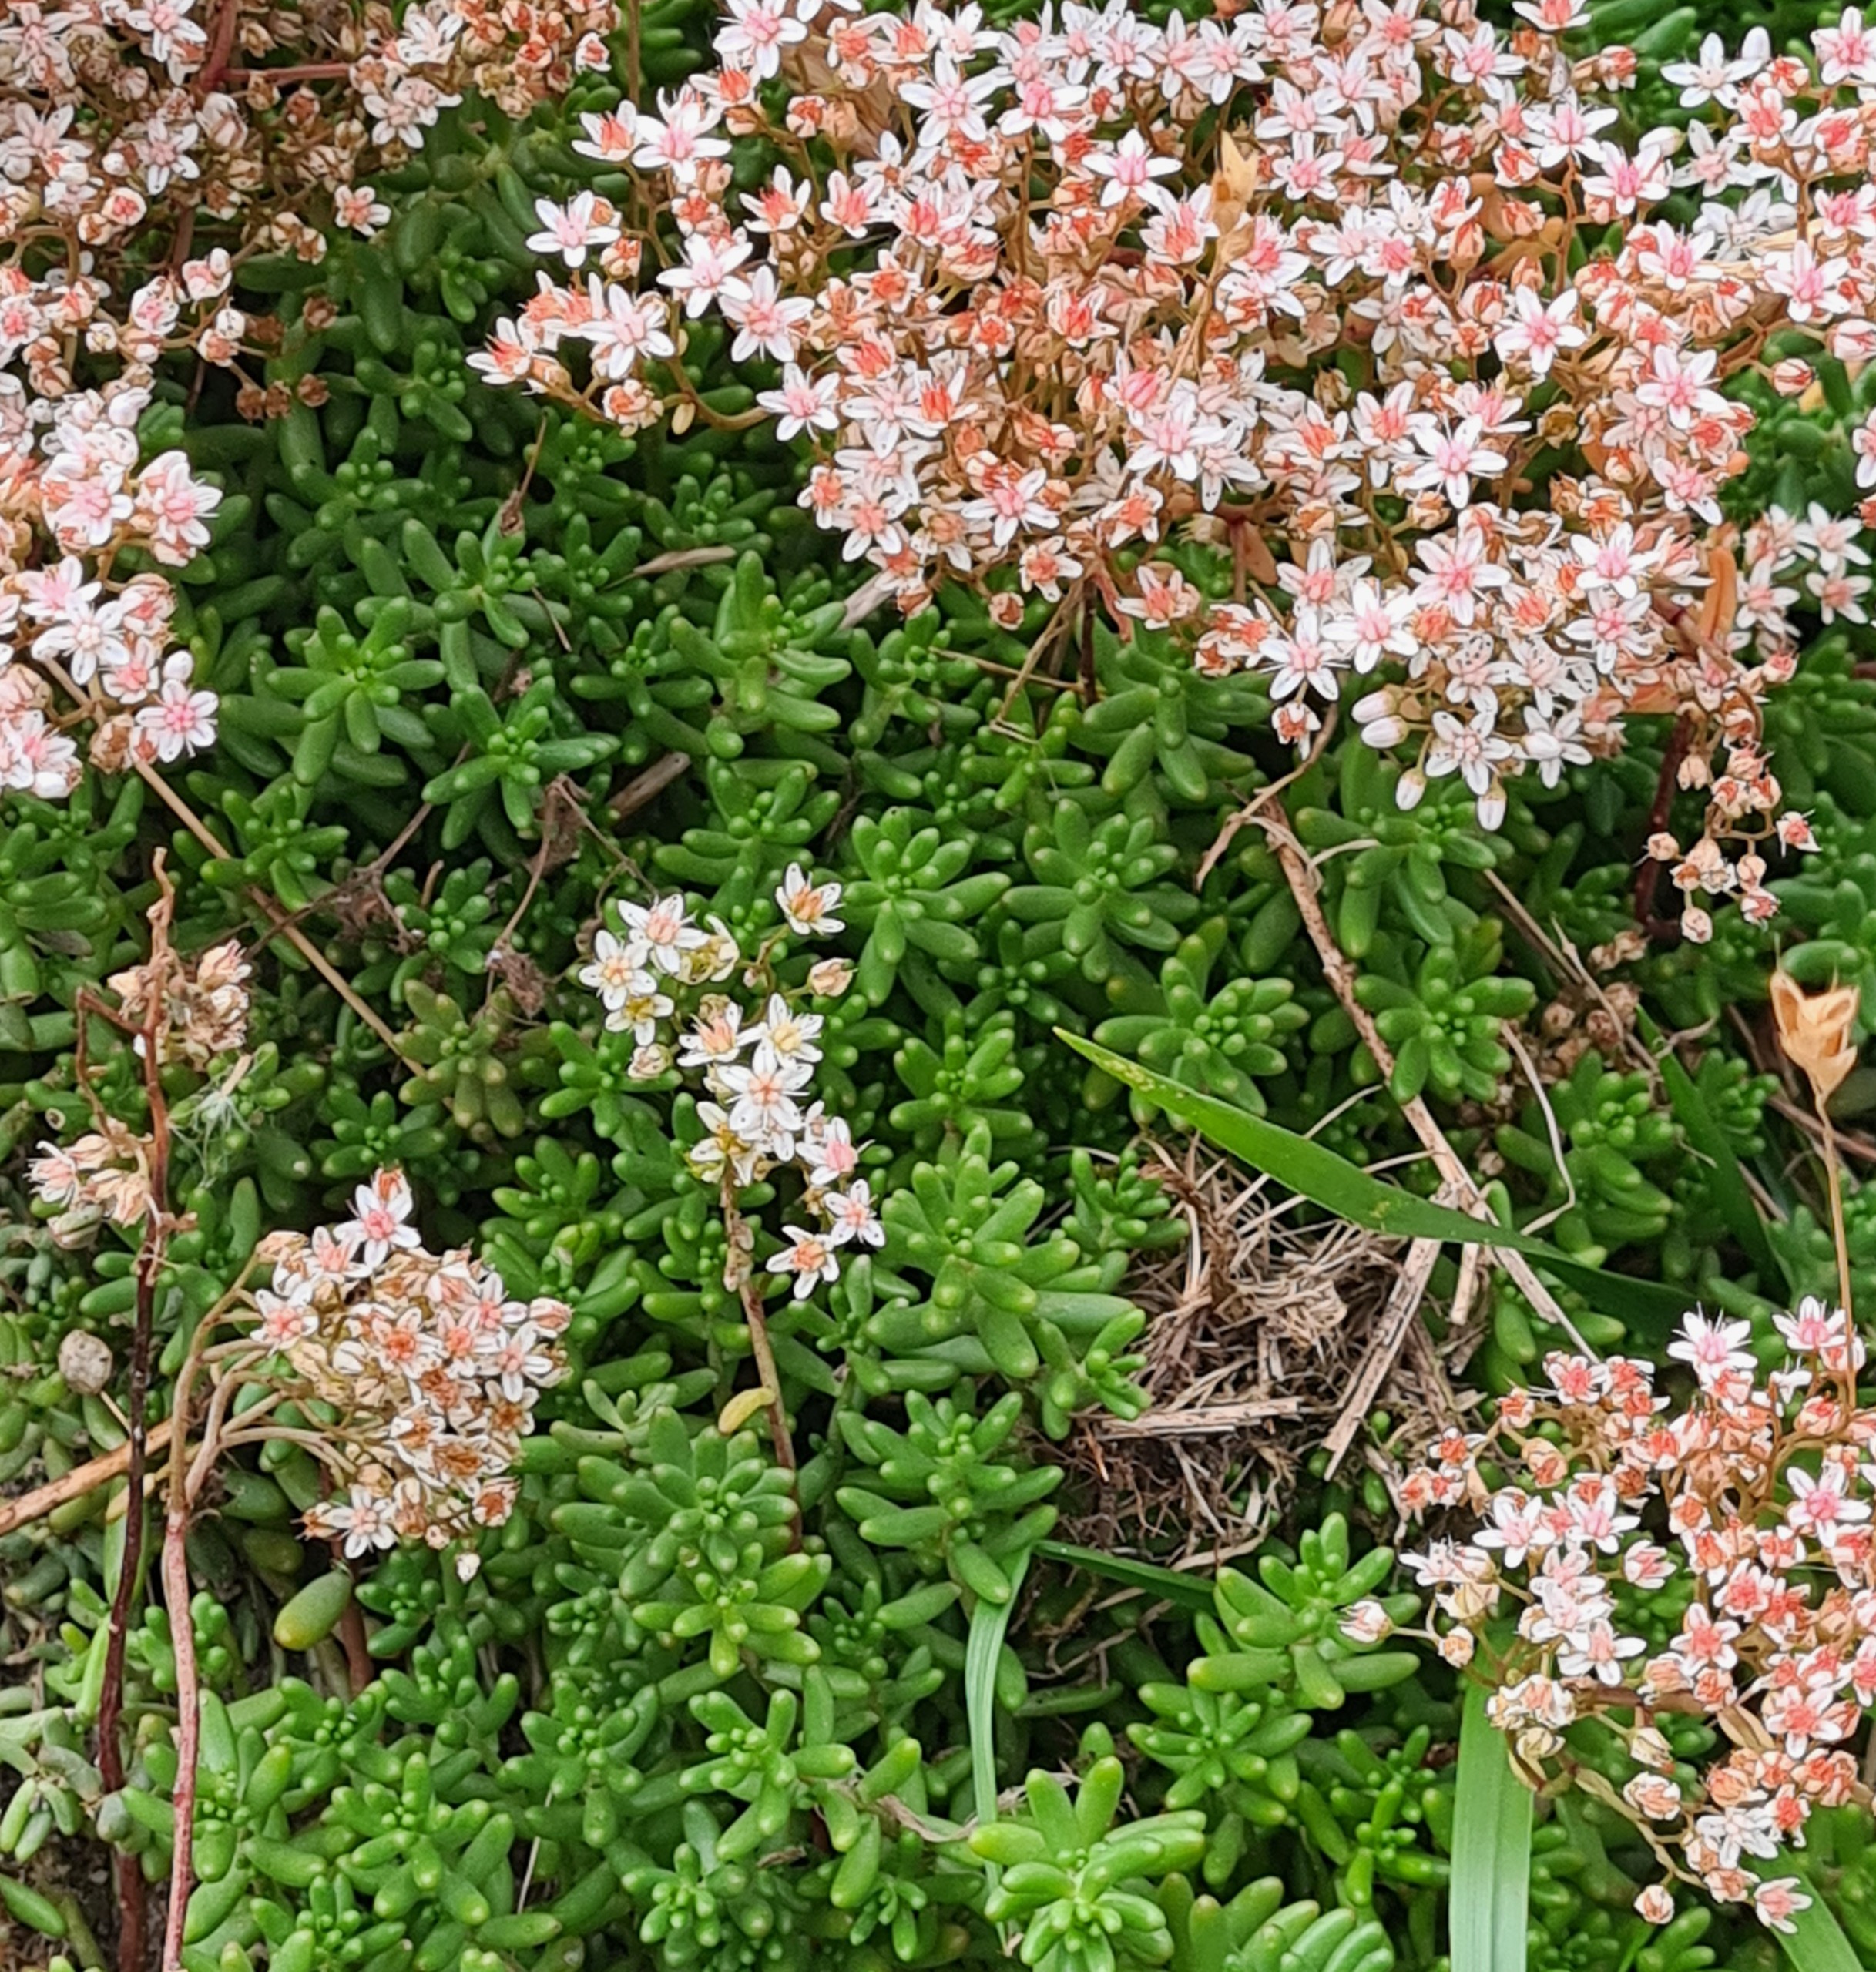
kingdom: Plantae
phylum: Tracheophyta
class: Magnoliopsida
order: Saxifragales
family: Crassulaceae
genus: Sedum
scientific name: Sedum album
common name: Hvid stenurt
